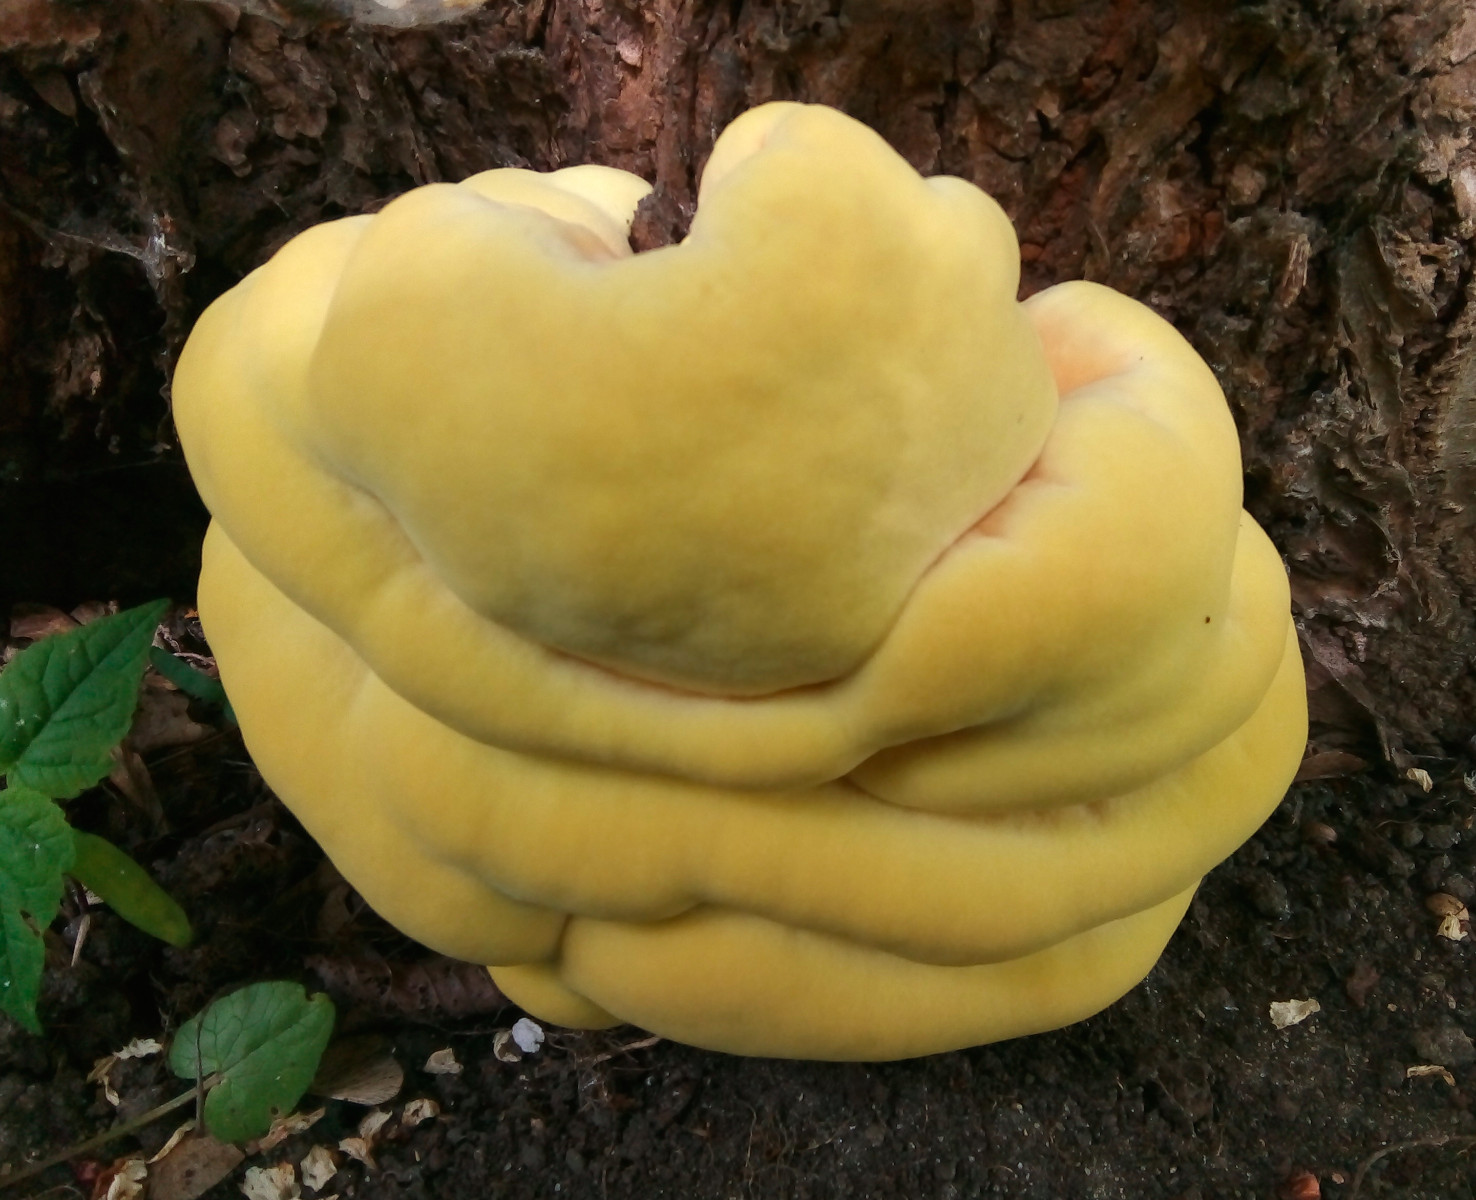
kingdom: Fungi
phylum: Basidiomycota
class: Agaricomycetes
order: Polyporales
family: Laetiporaceae
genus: Laetiporus
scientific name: Laetiporus sulphureus
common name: svovlporesvamp
